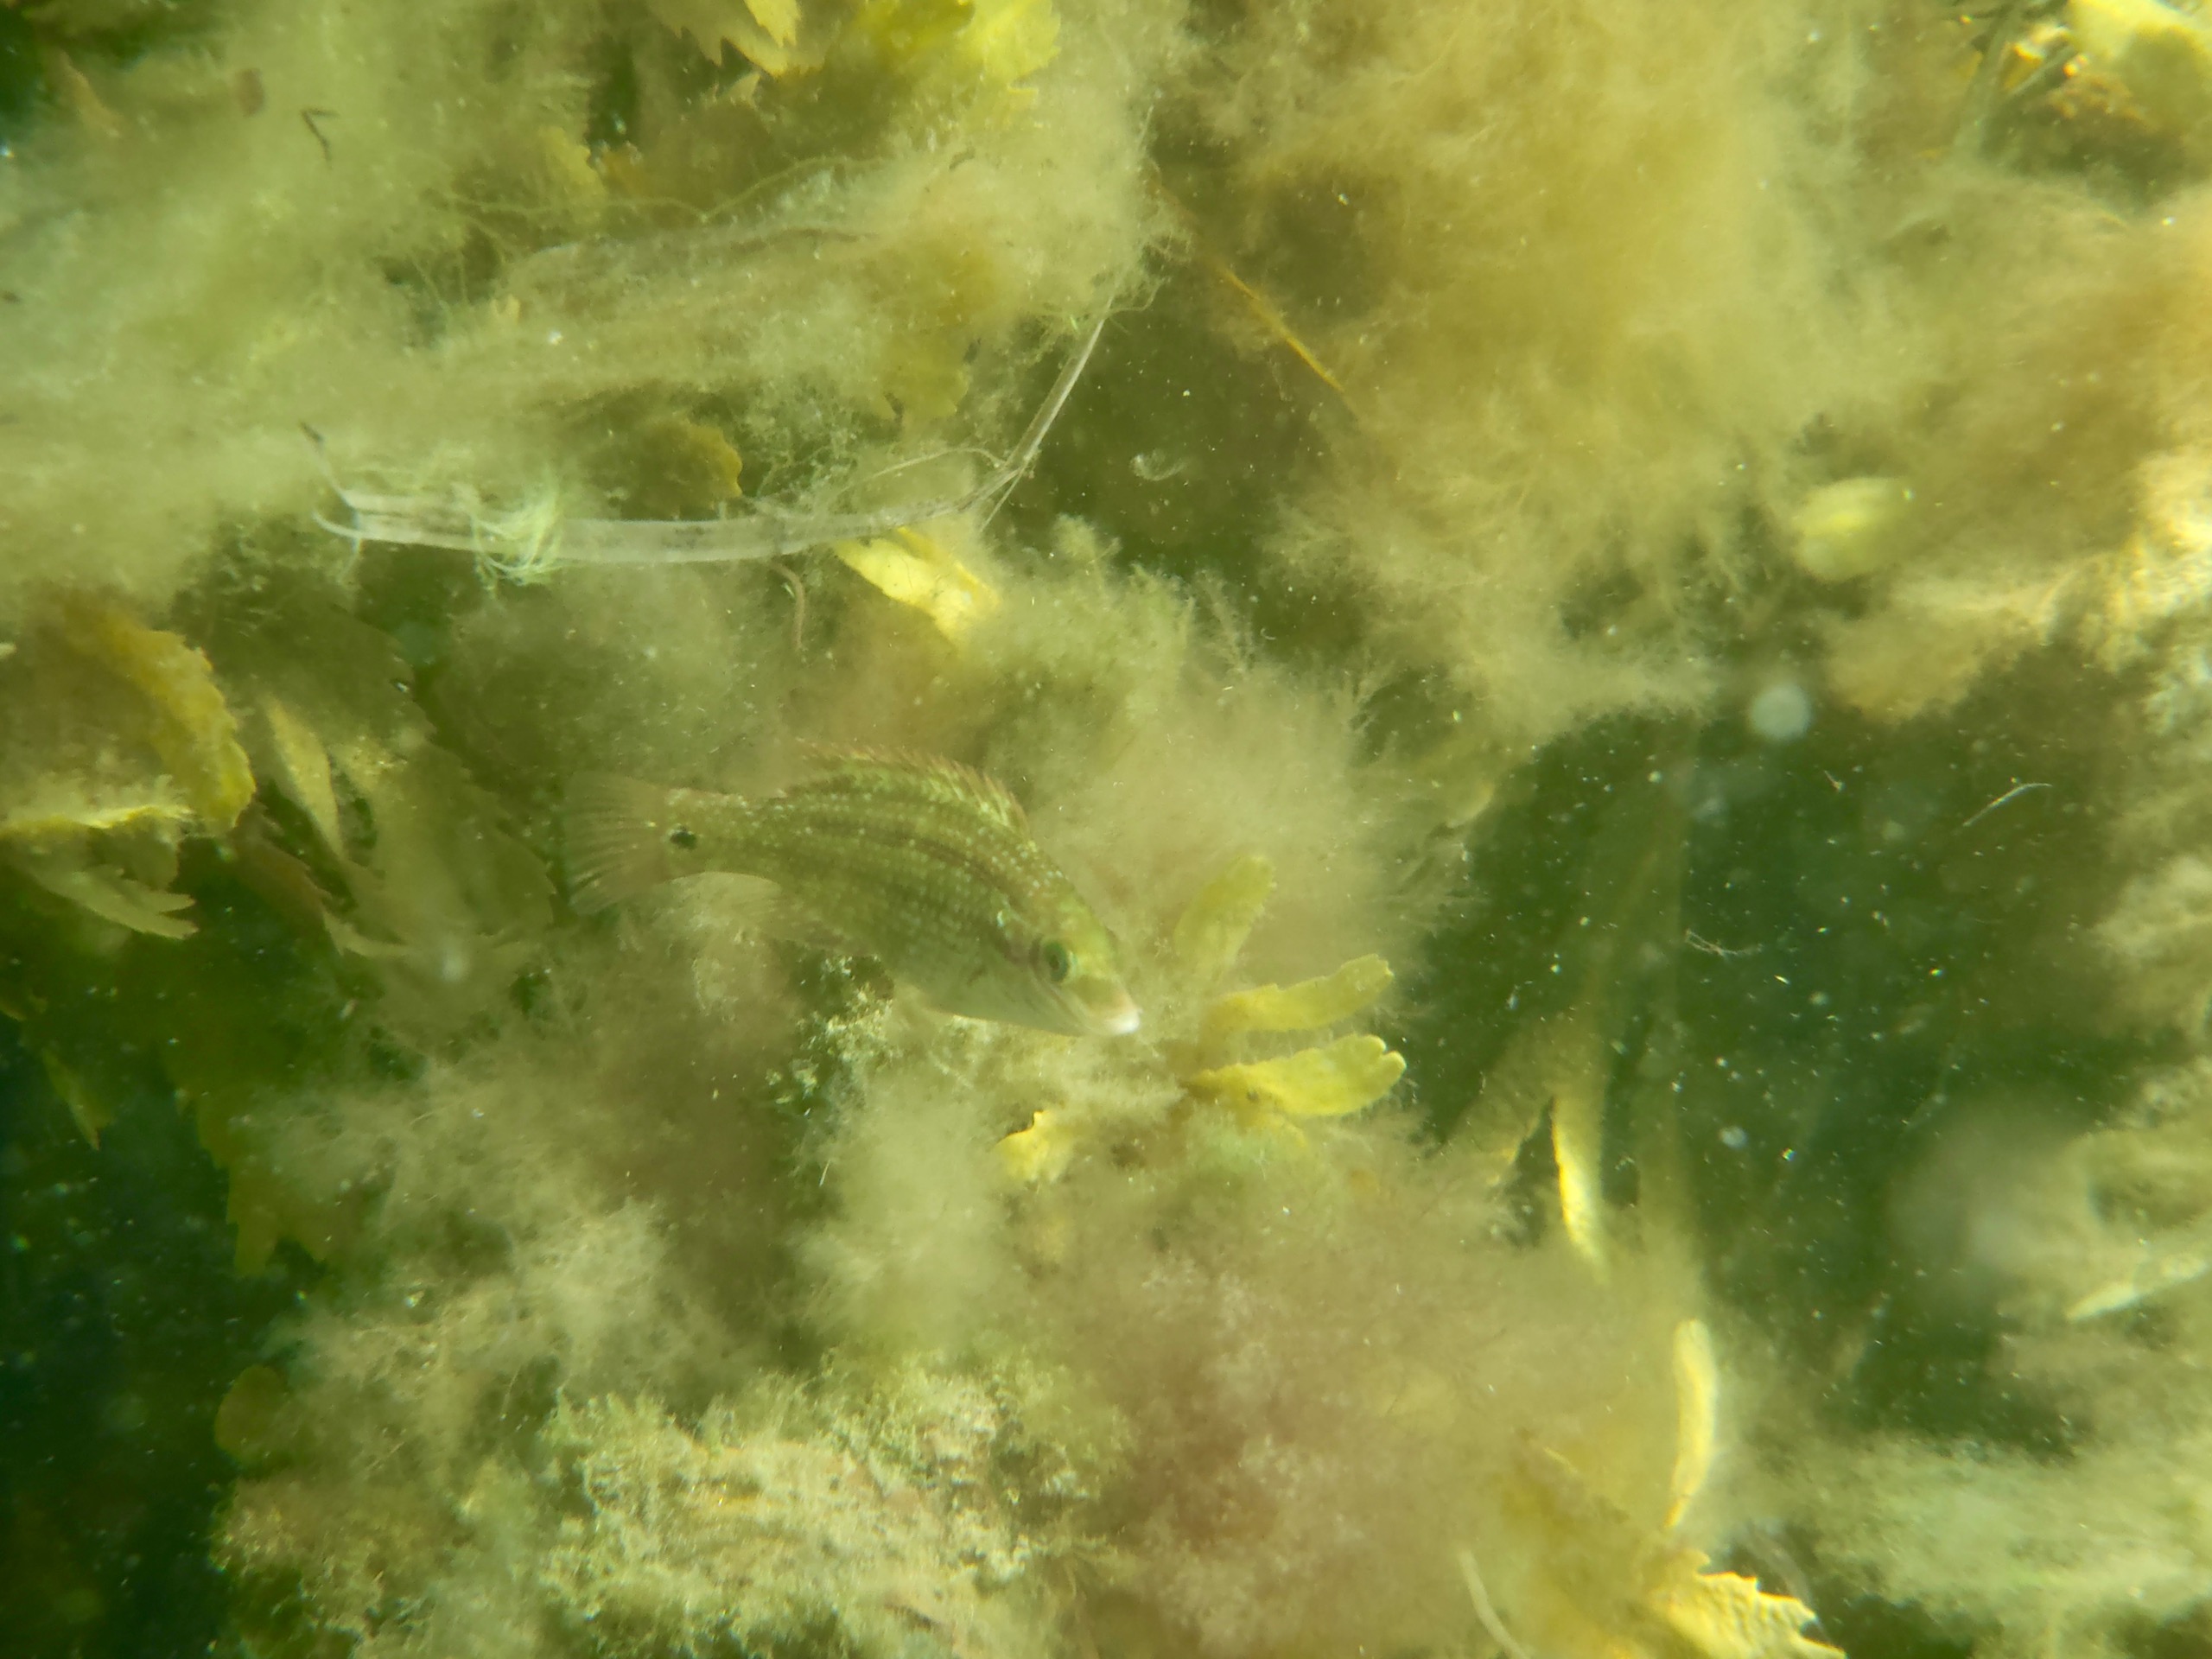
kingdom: Animalia
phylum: Chordata
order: Perciformes
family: Labridae
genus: Symphodus
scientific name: Symphodus melops
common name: Savgylte
